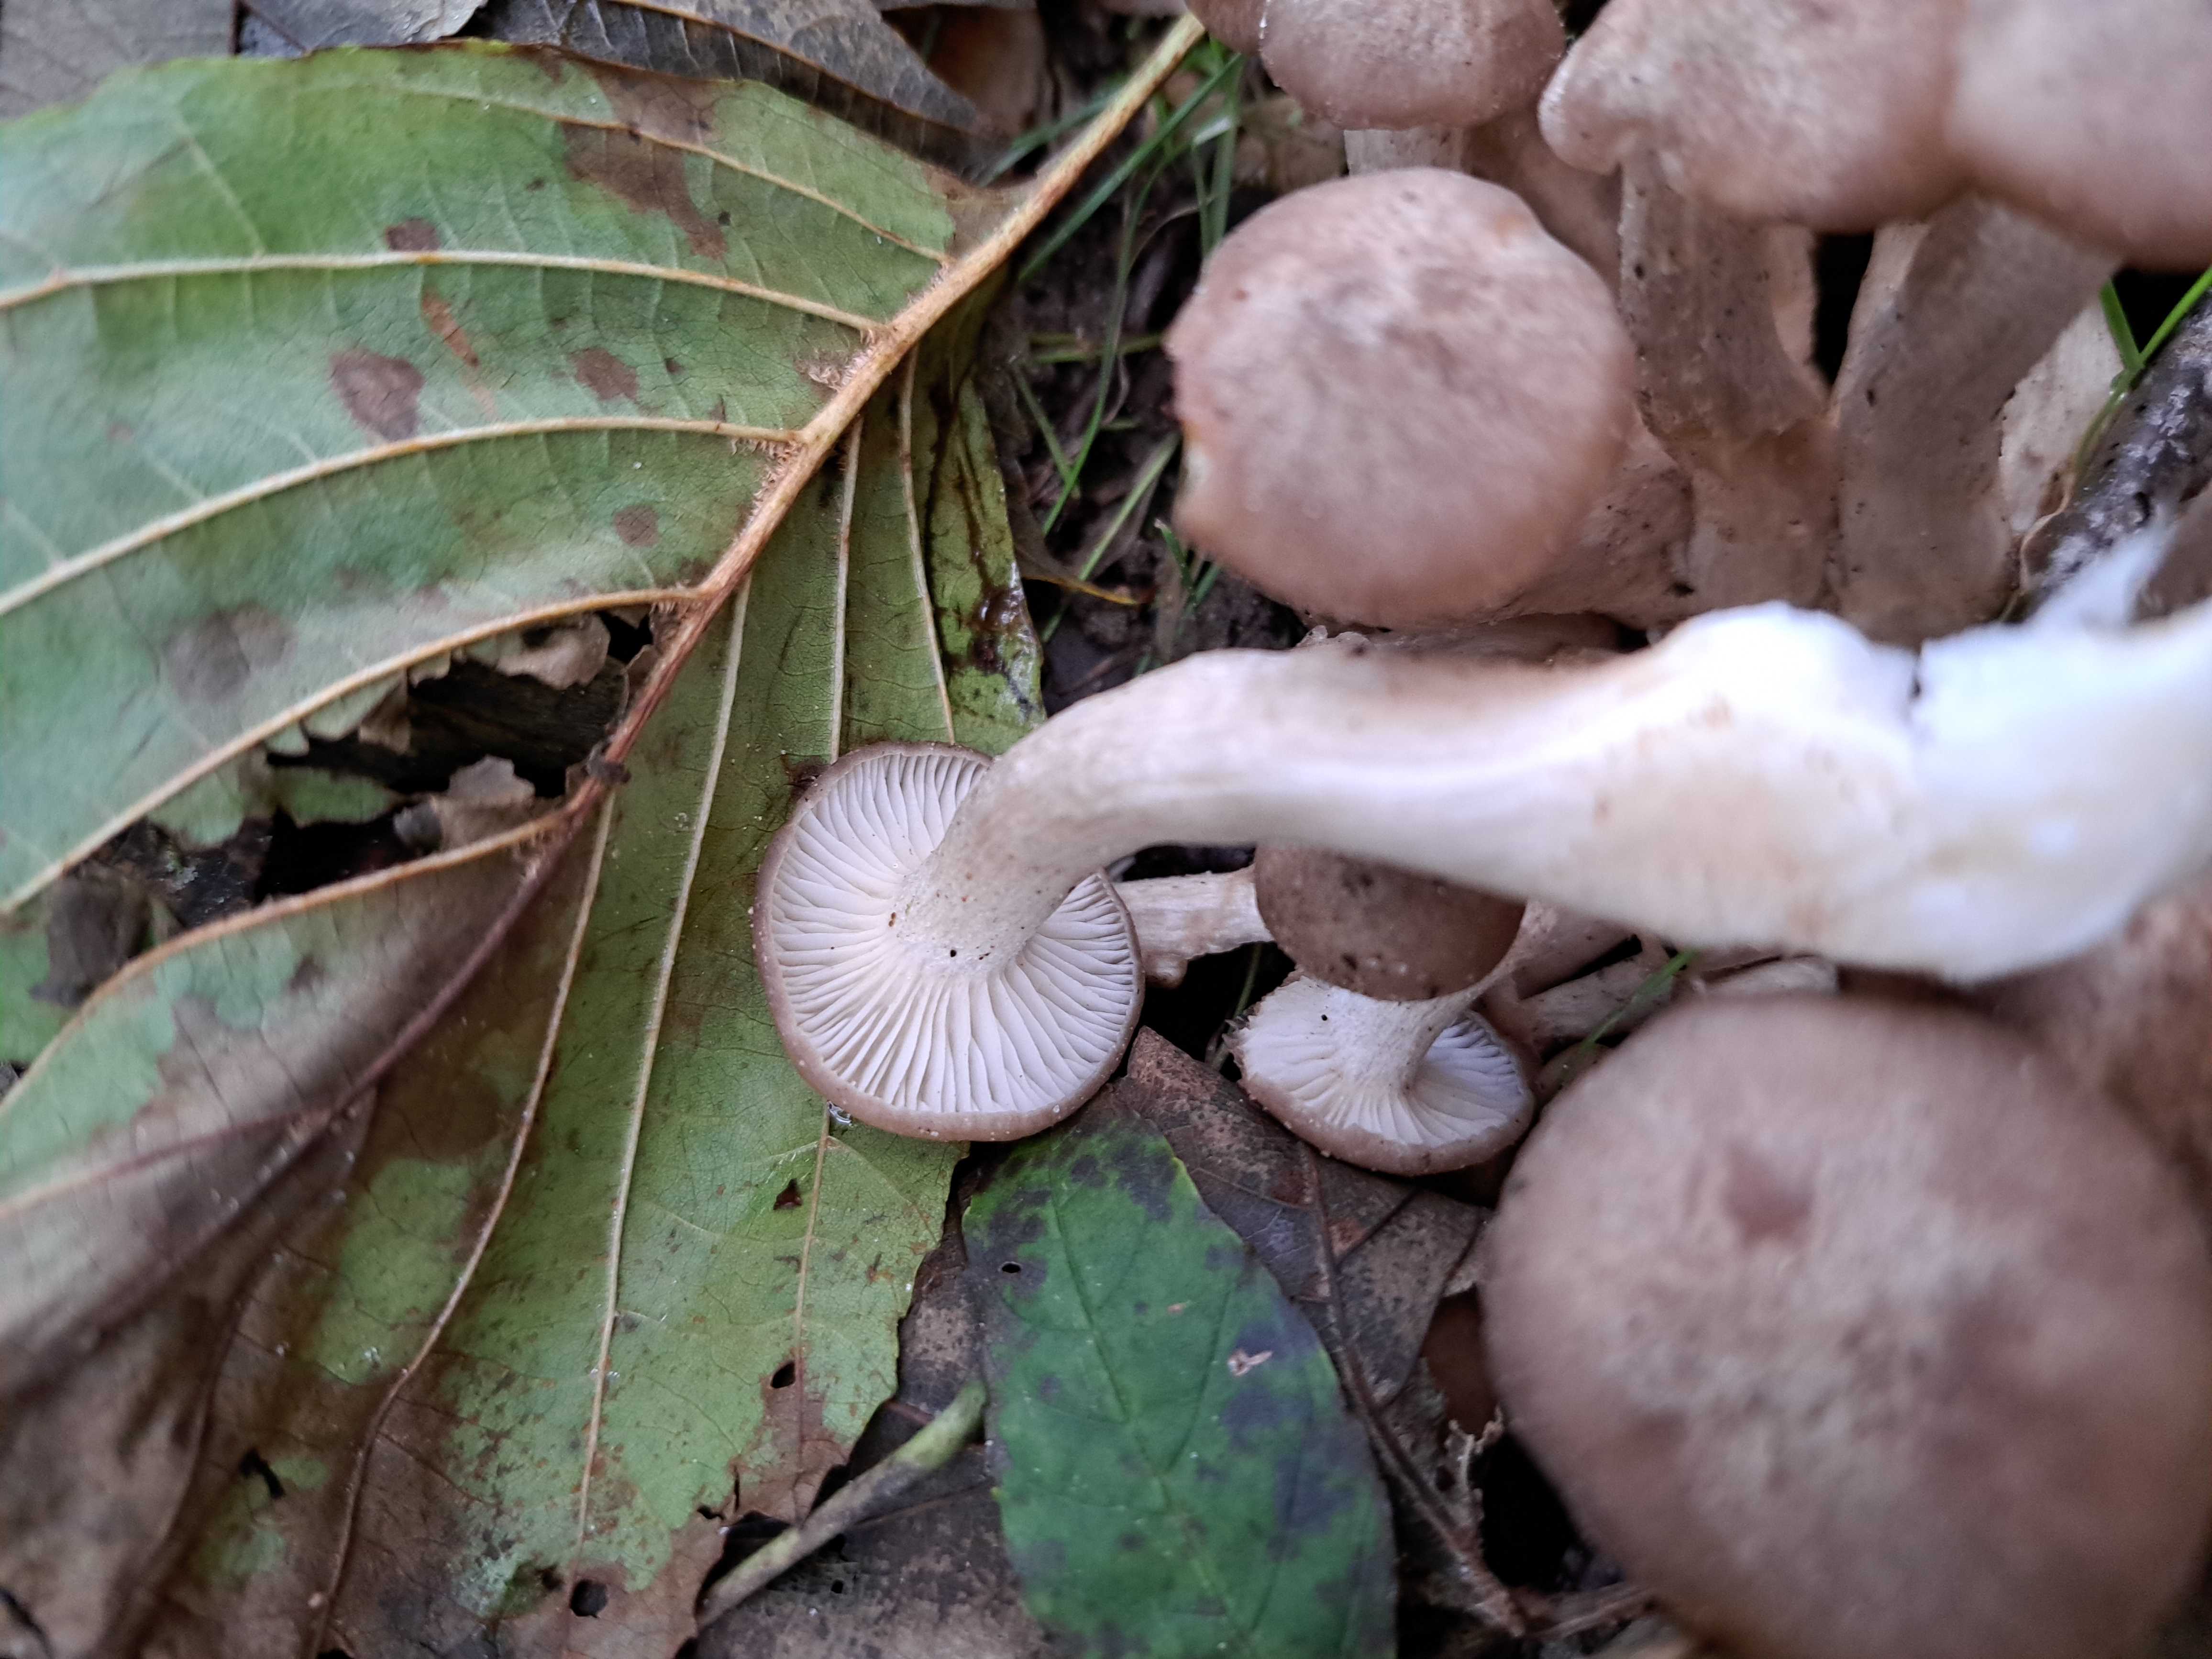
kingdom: Fungi
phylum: Basidiomycota
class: Agaricomycetes
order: Agaricales
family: Lyophyllaceae
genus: Lyophyllum
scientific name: Lyophyllum decastes
